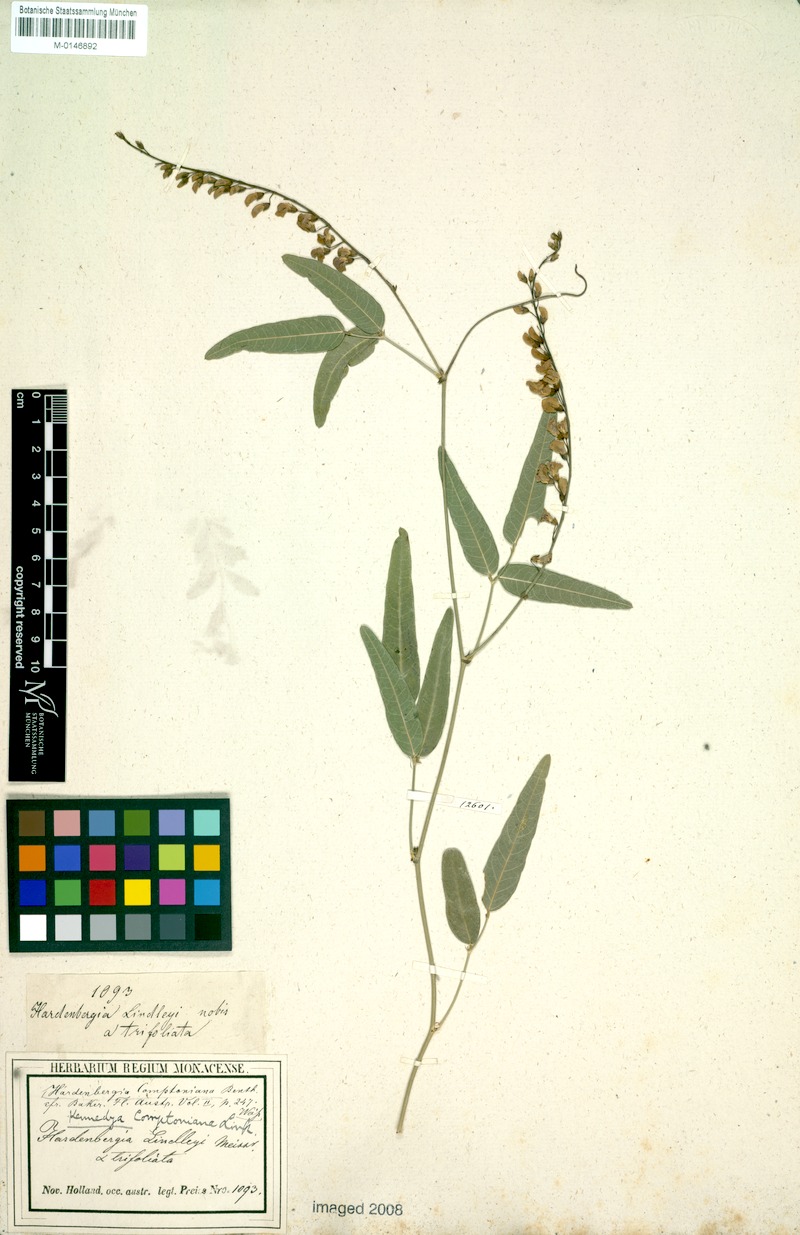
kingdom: Plantae
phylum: Tracheophyta
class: Magnoliopsida
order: Fabales
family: Fabaceae
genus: Hardenbergia
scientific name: Hardenbergia comptoniana
